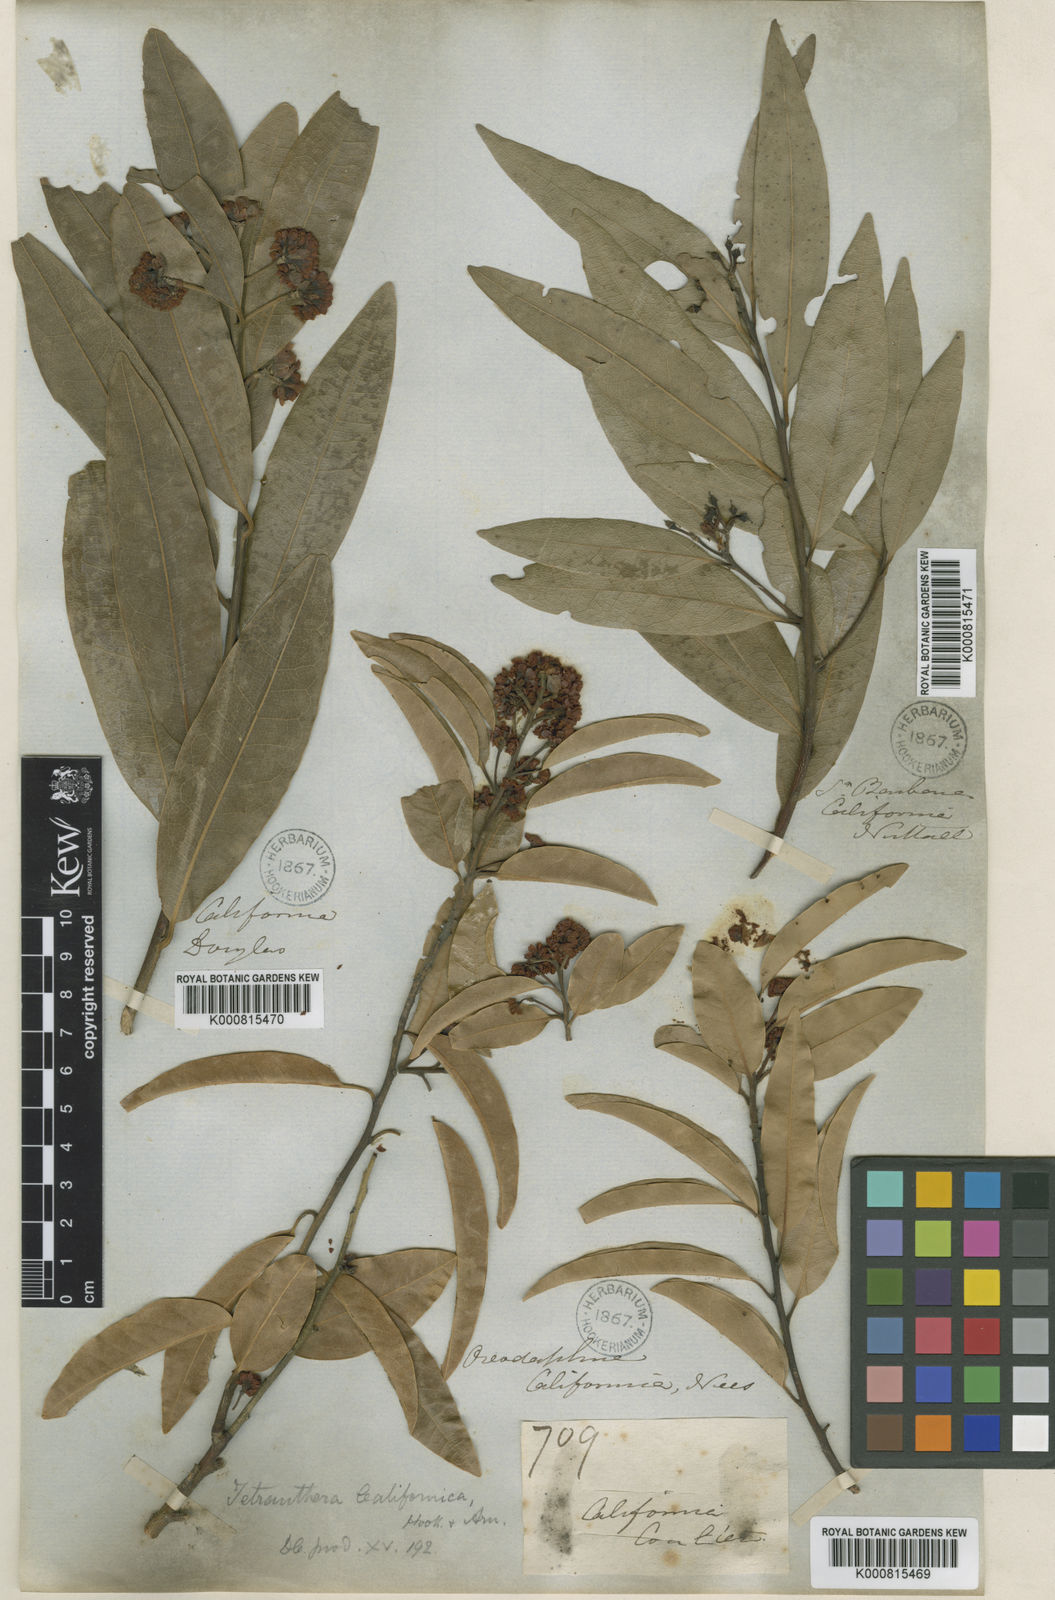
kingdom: Plantae
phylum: Tracheophyta
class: Magnoliopsida
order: Laurales
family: Lauraceae
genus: Umbellularia
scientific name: Umbellularia californica
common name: California bay
